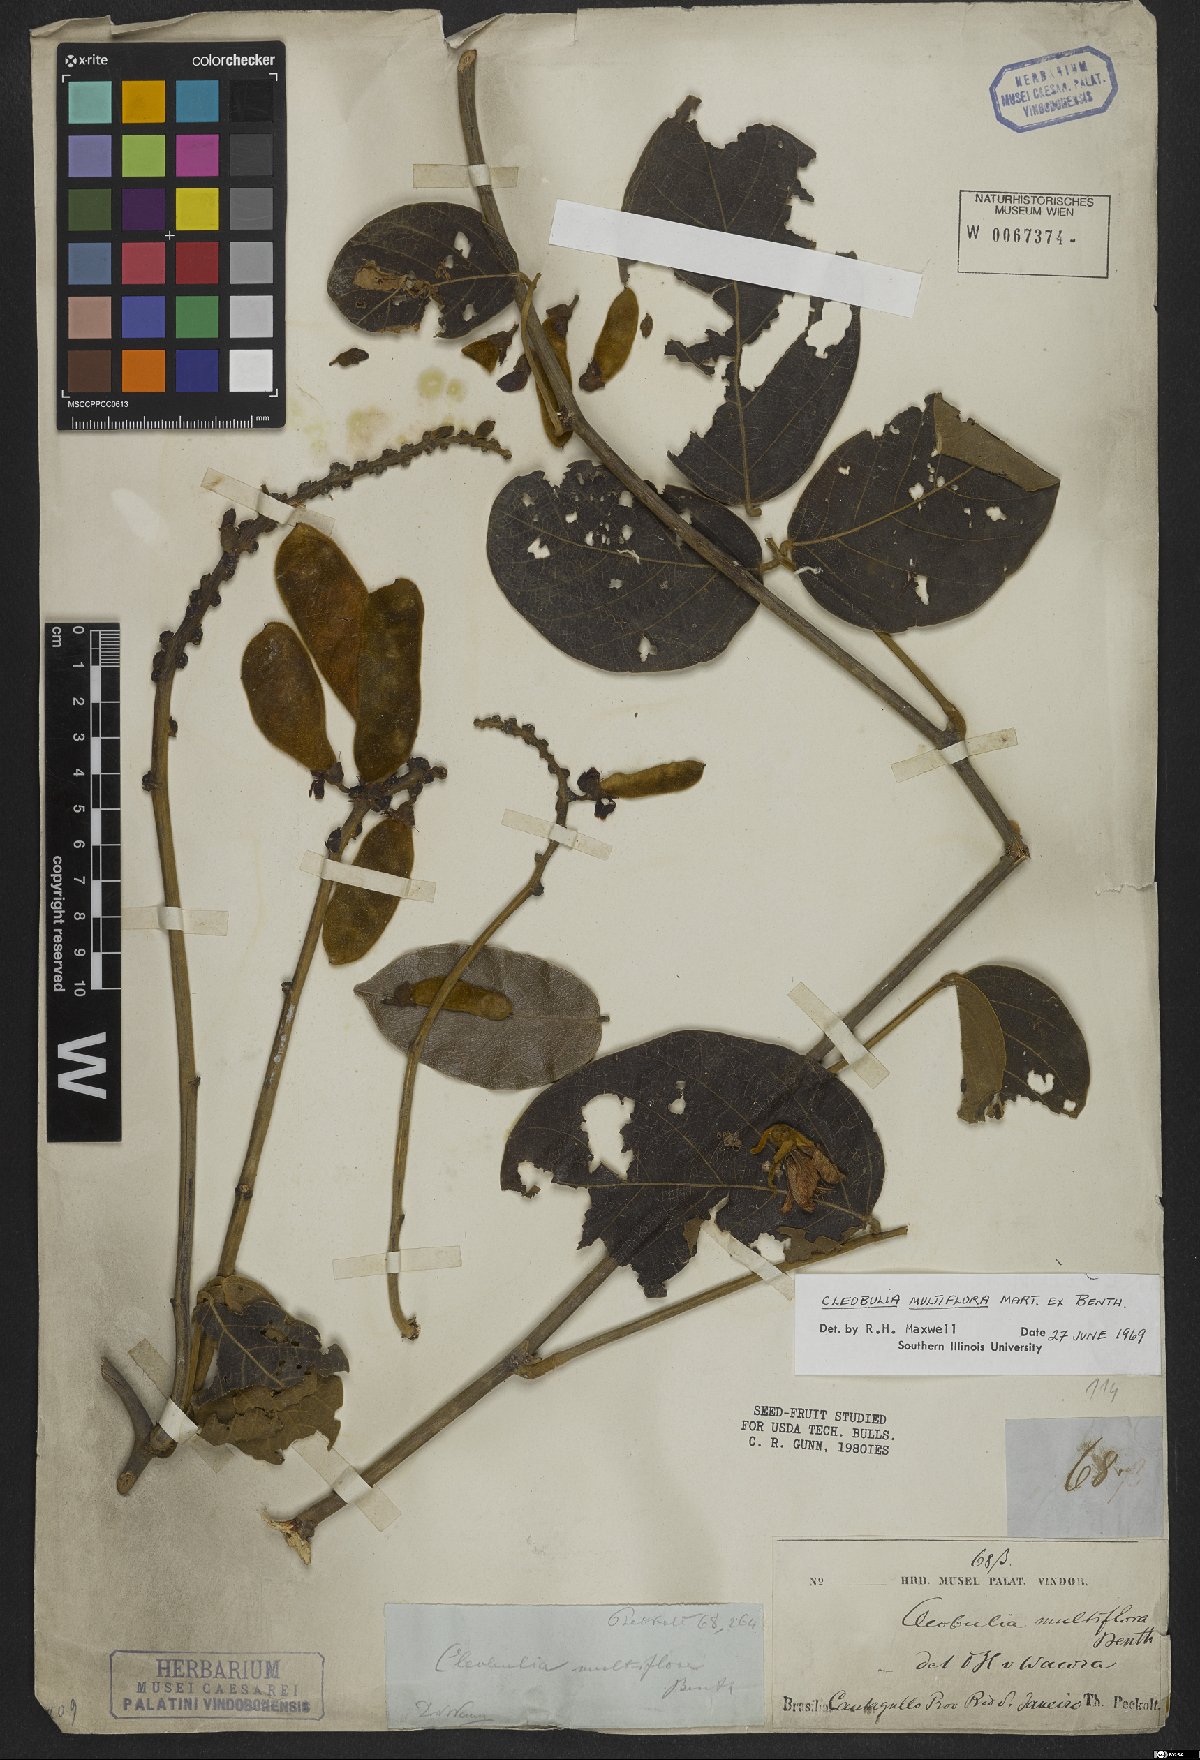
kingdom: Plantae
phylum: Tracheophyta
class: Magnoliopsida
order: Fabales
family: Fabaceae
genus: Cleobulia
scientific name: Cleobulia coccinea
